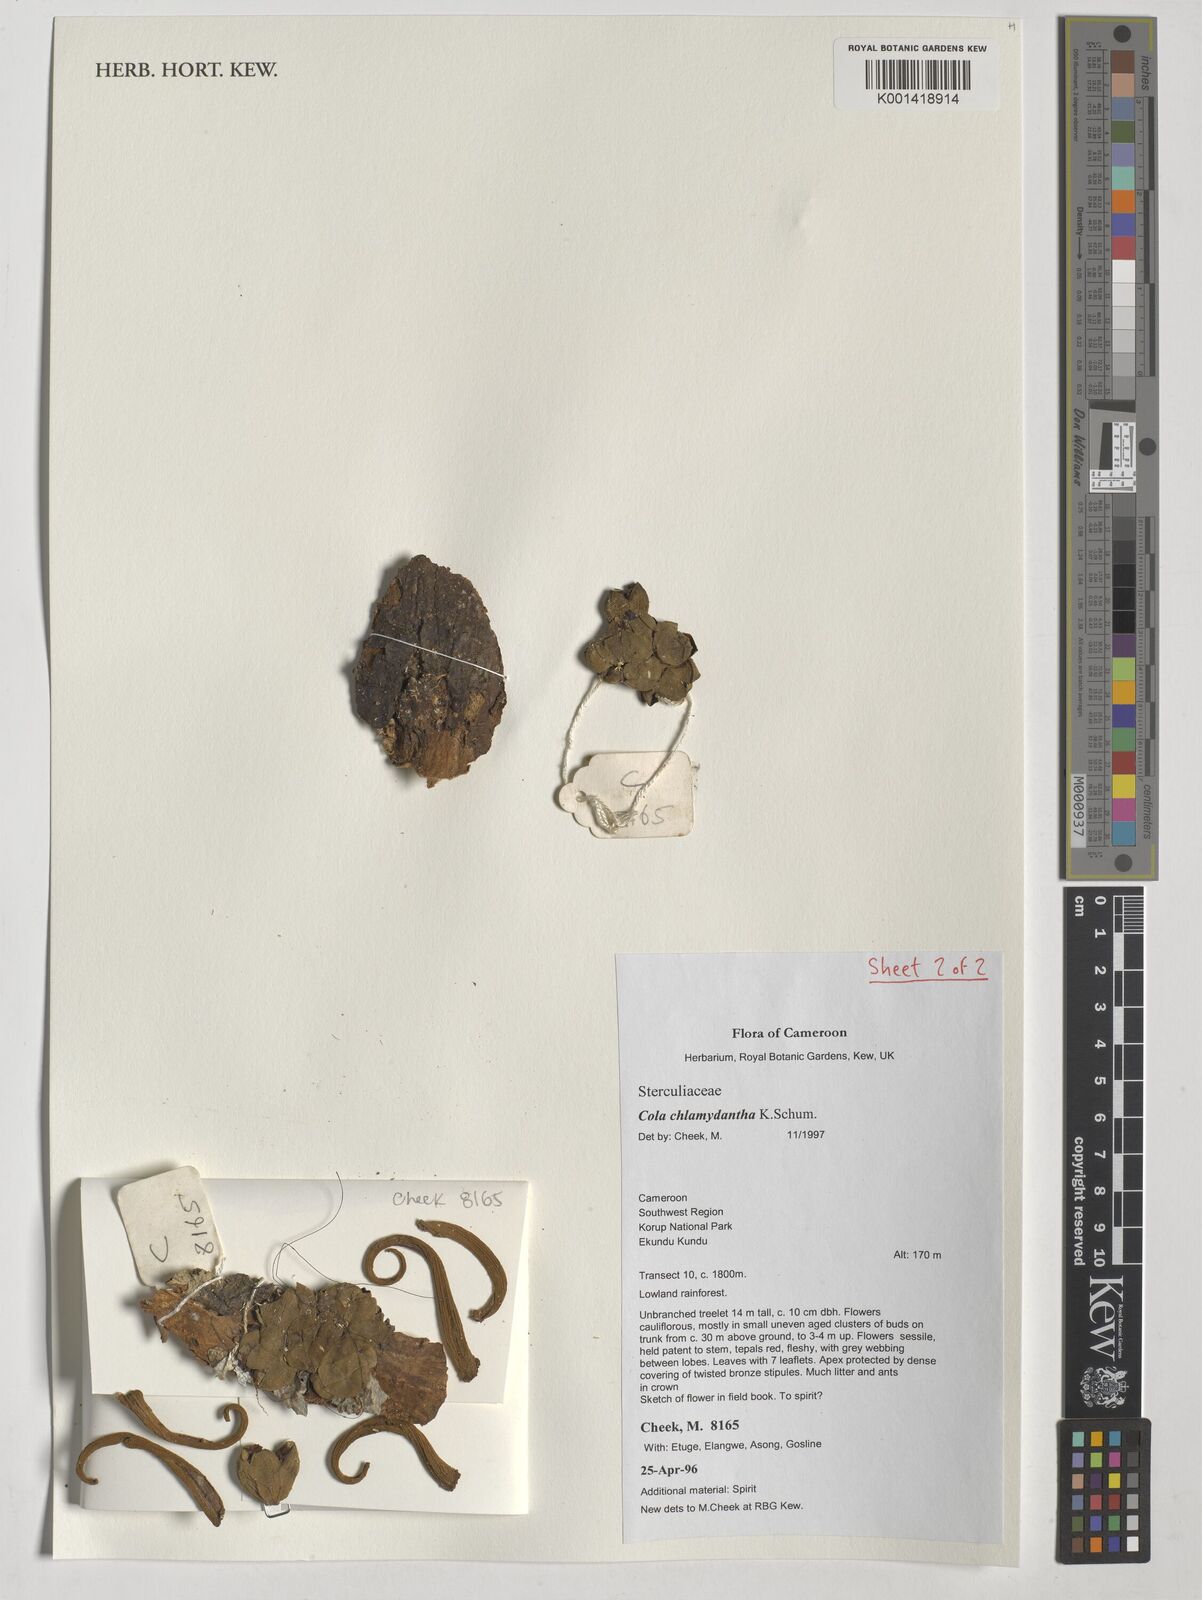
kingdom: Plantae
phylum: Tracheophyta
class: Magnoliopsida
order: Malvales
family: Malvaceae
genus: Cola
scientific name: Cola chlamydantha
